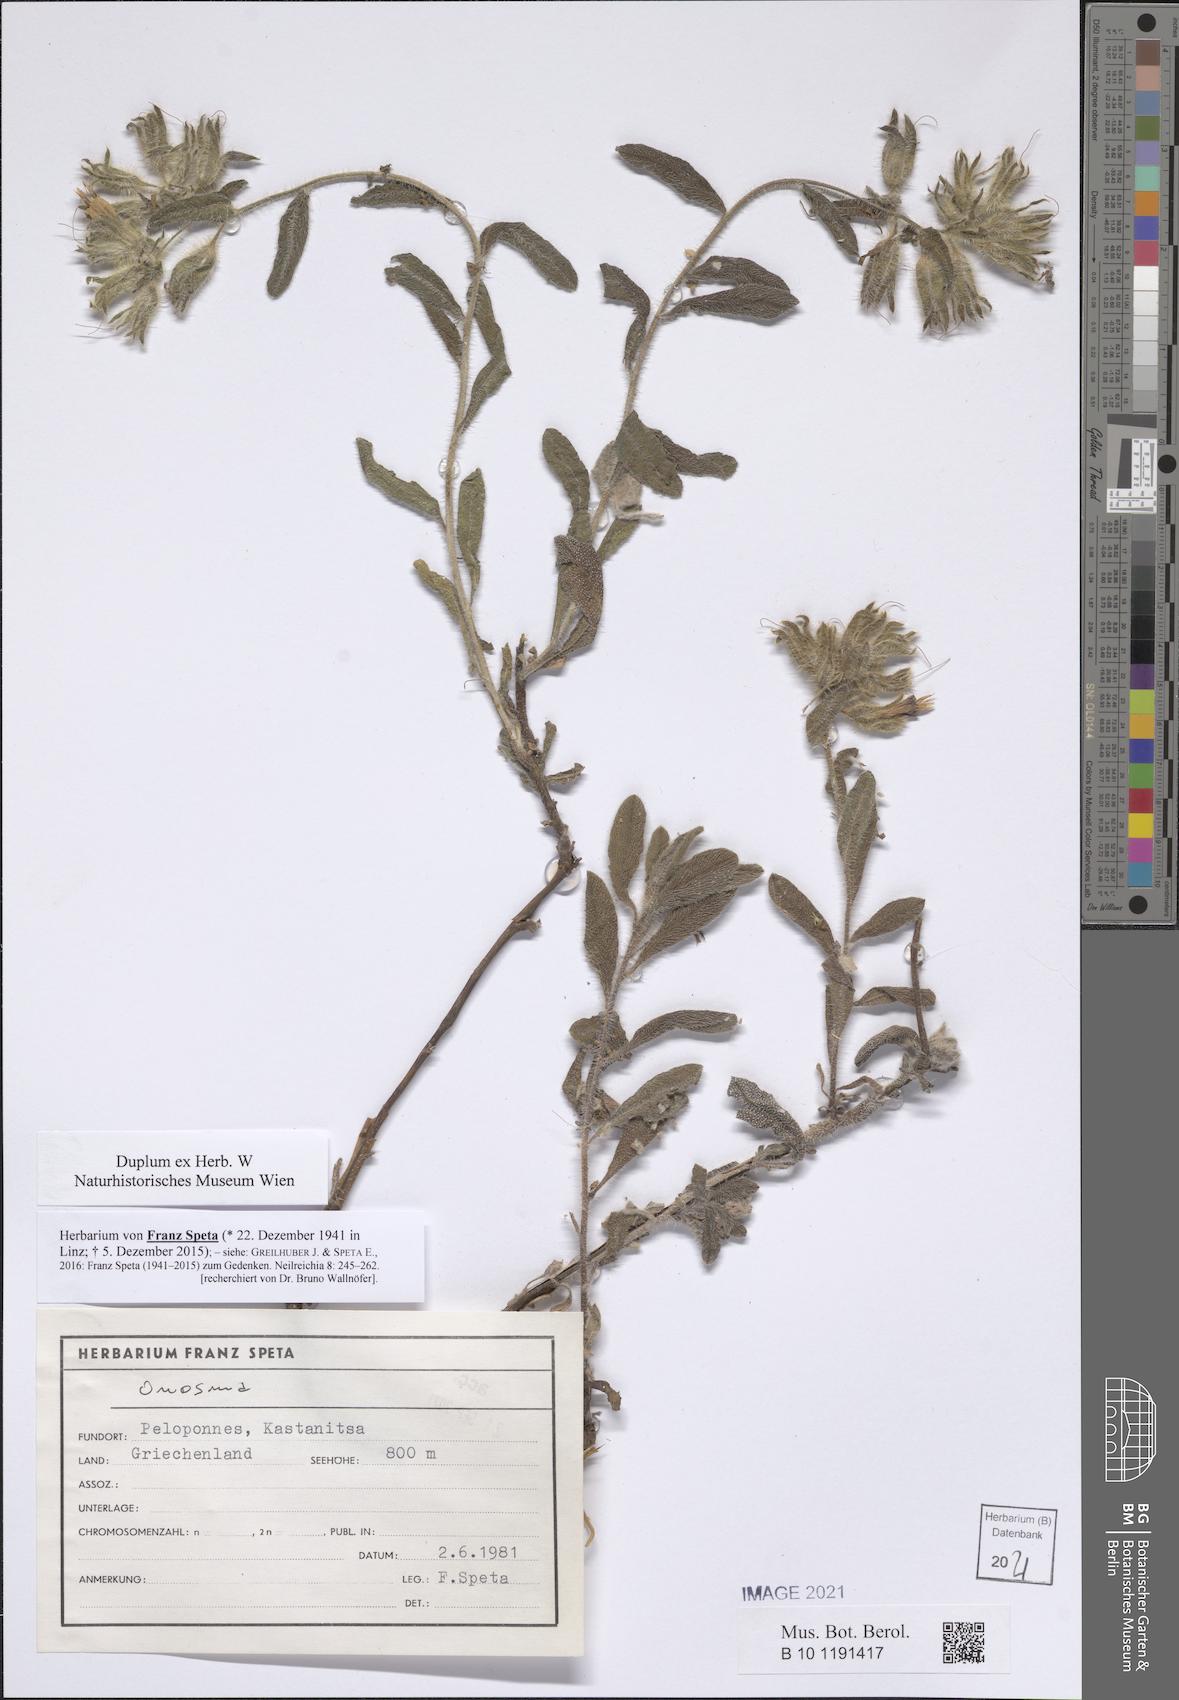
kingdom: Plantae
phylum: Tracheophyta
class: Magnoliopsida
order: Boraginales
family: Boraginaceae
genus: Onosma
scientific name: Onosma
